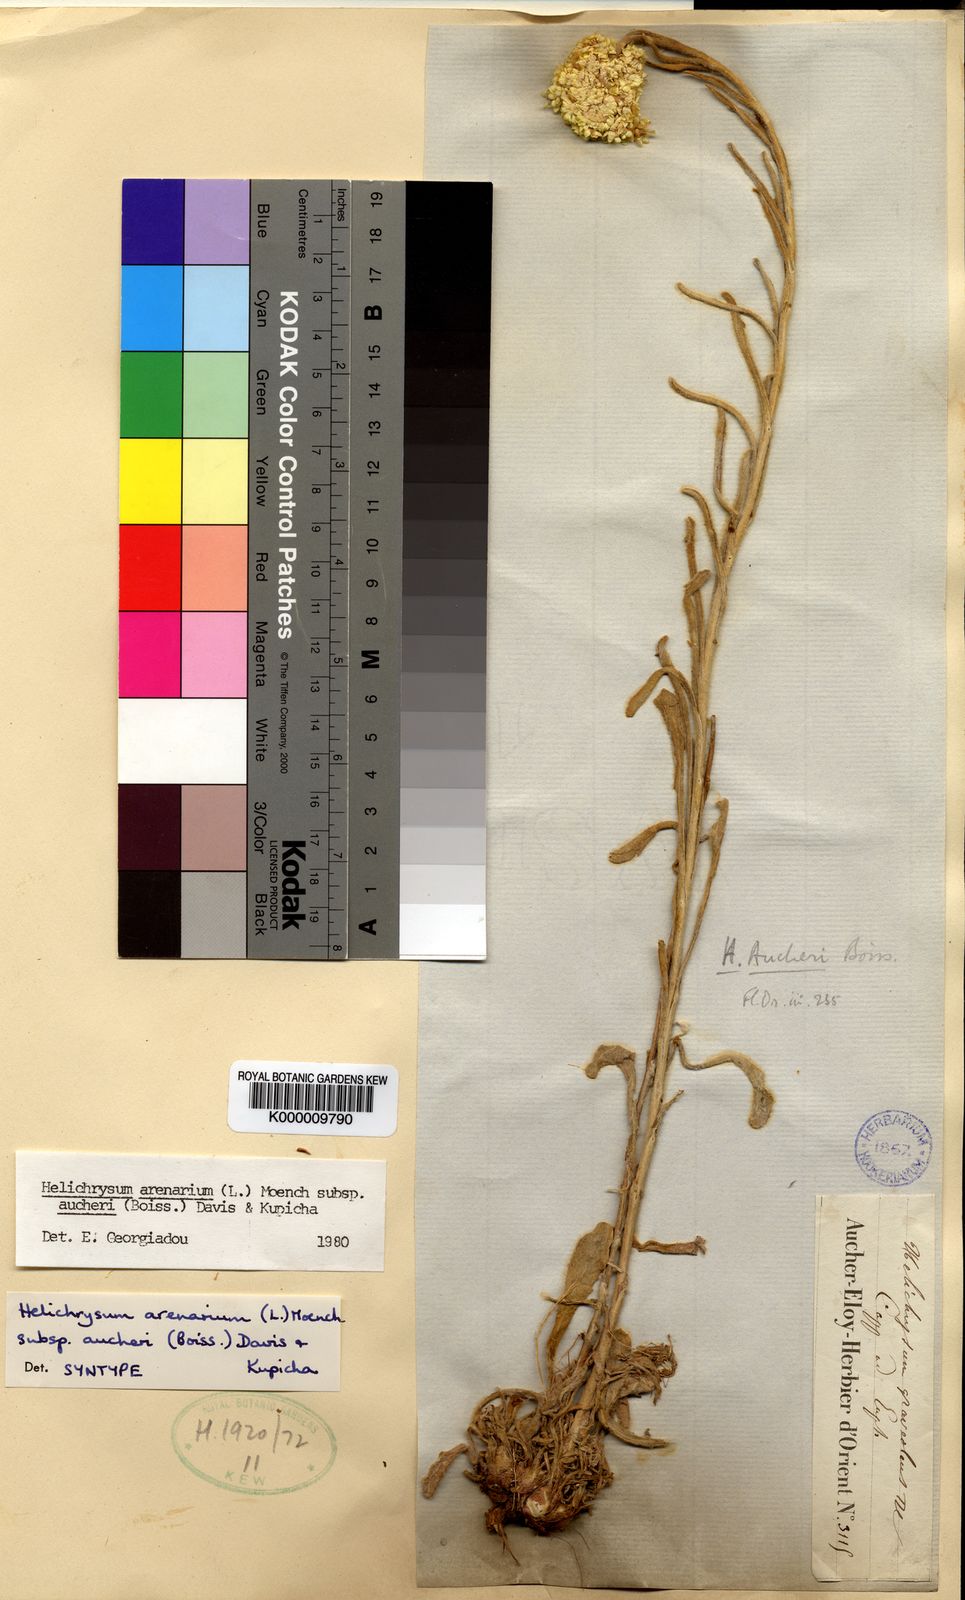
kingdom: Plantae
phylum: Tracheophyta
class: Magnoliopsida
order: Asterales
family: Asteraceae
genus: Helichrysum
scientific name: Helichrysum arenarium
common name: Strawflower
